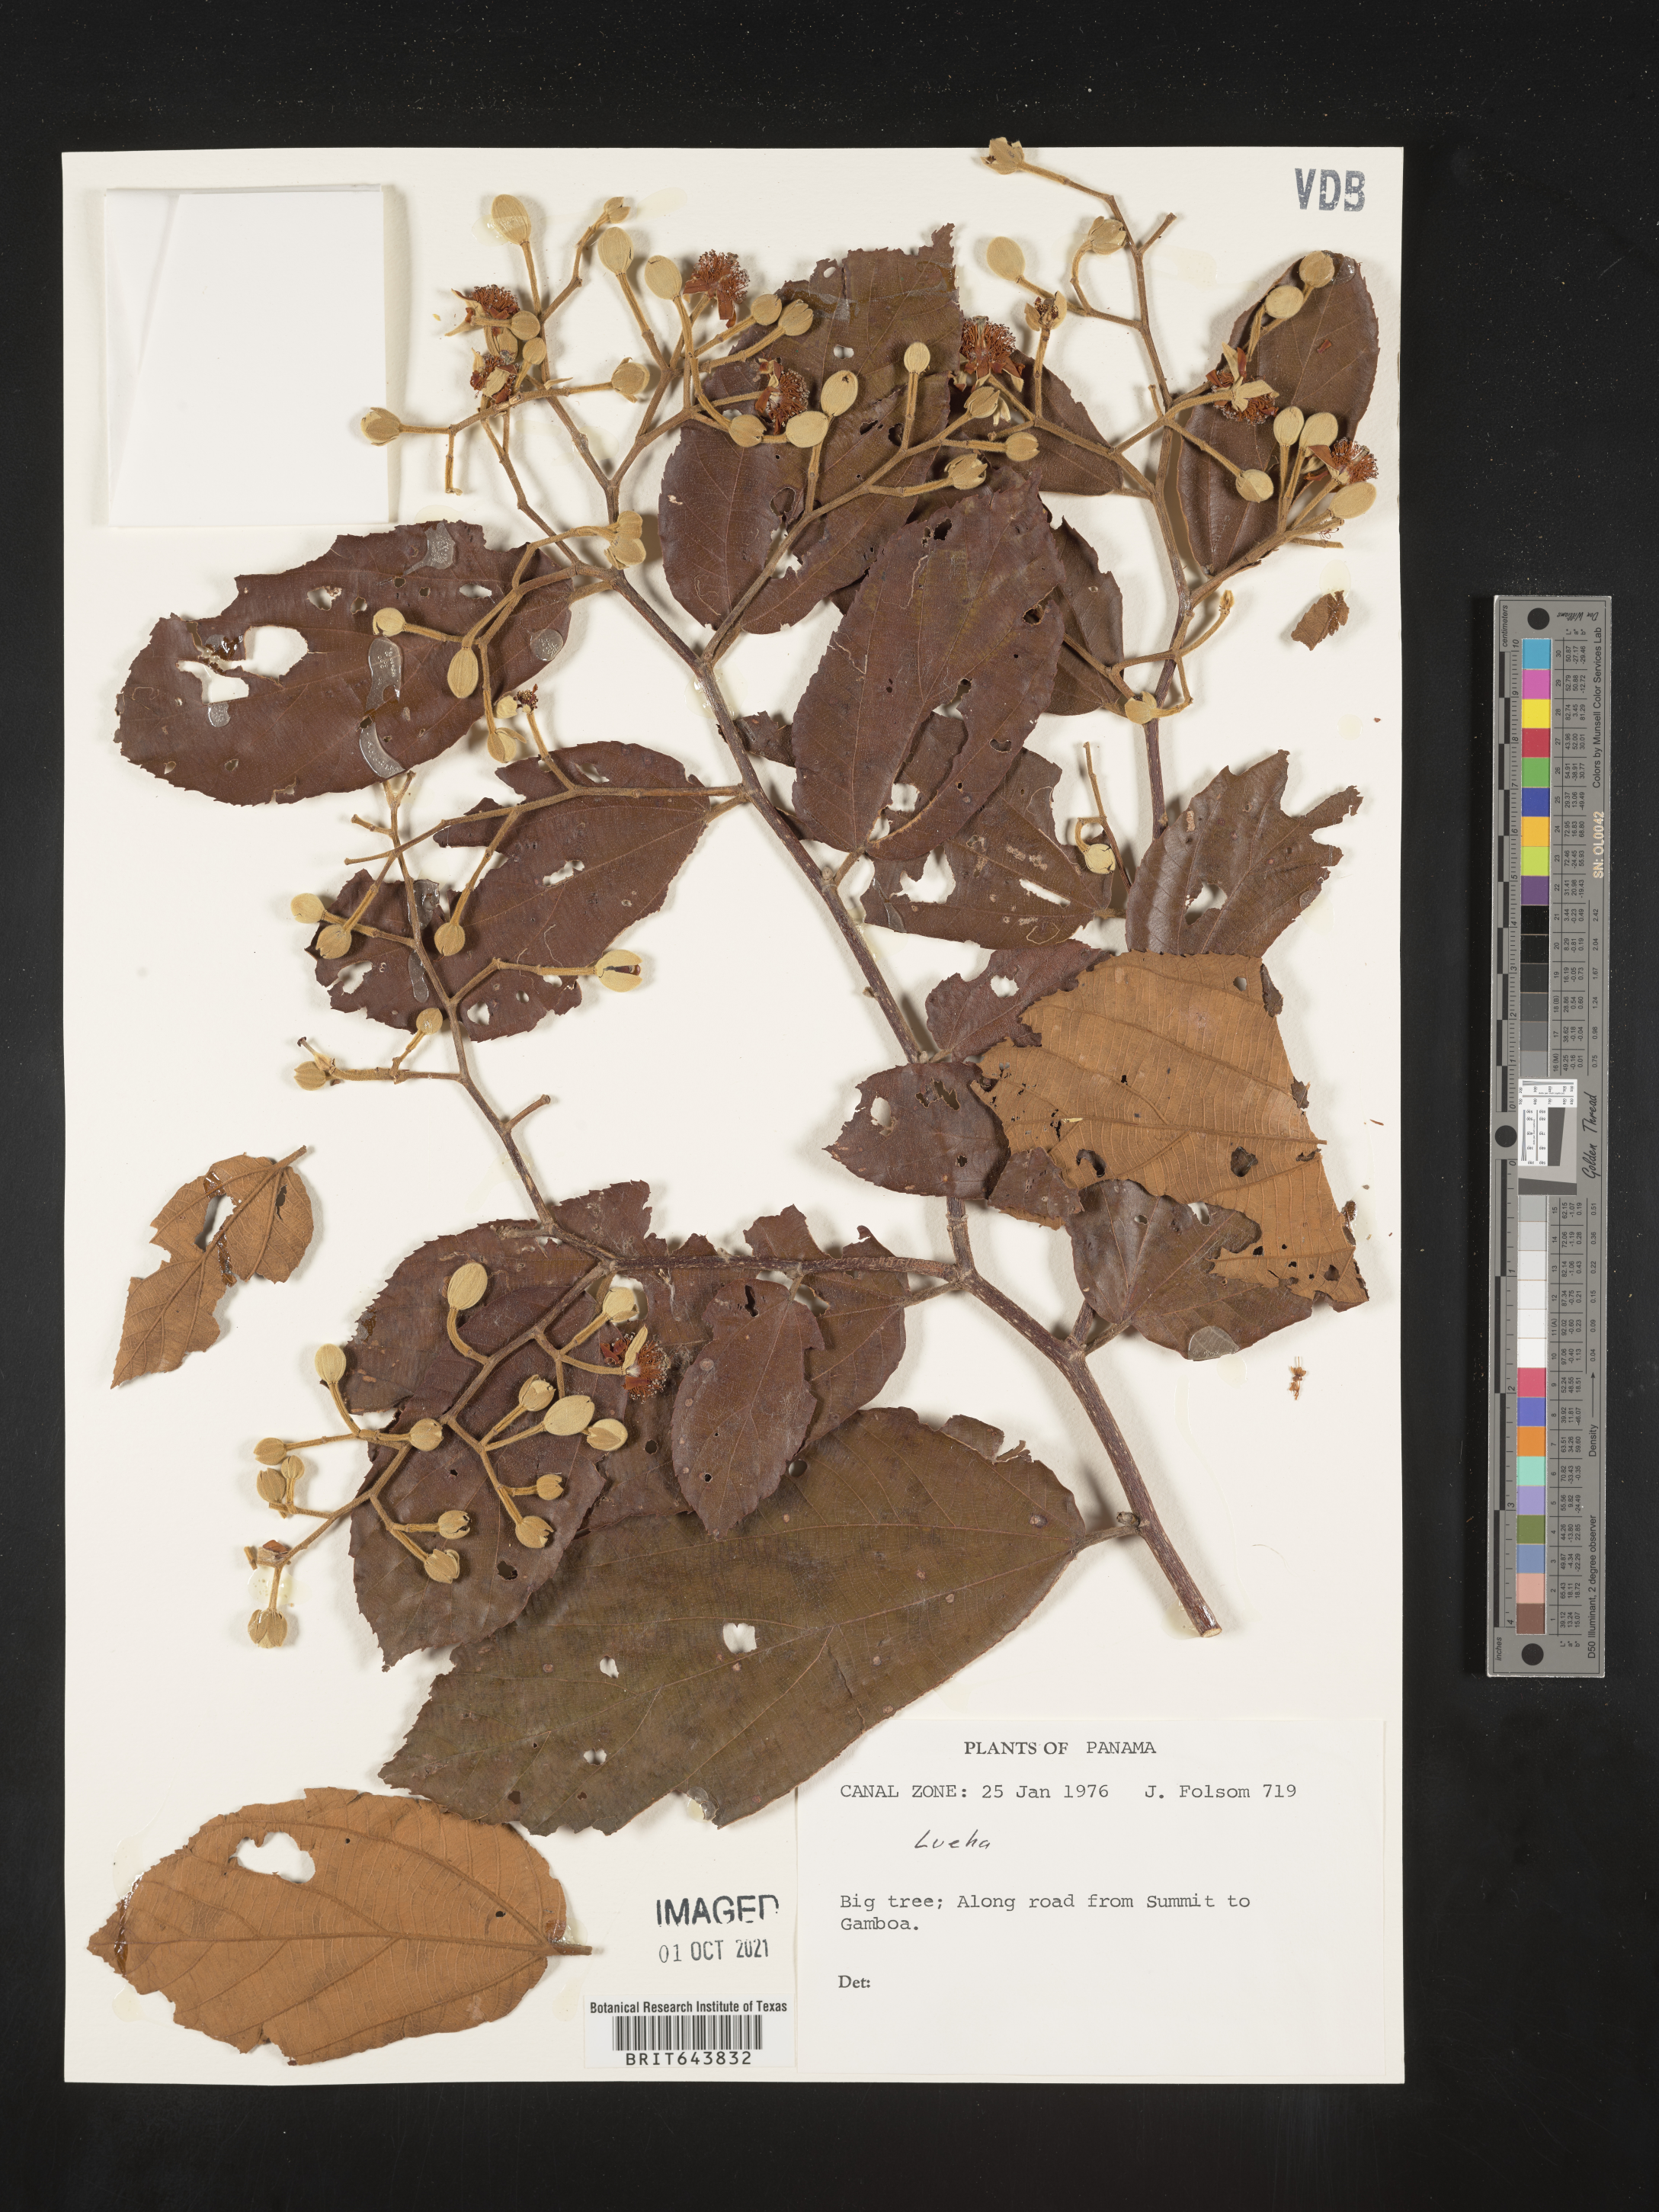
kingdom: Plantae
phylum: Tracheophyta
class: Magnoliopsida
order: Malvales
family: Malvaceae
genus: Luehea
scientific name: Luehea
